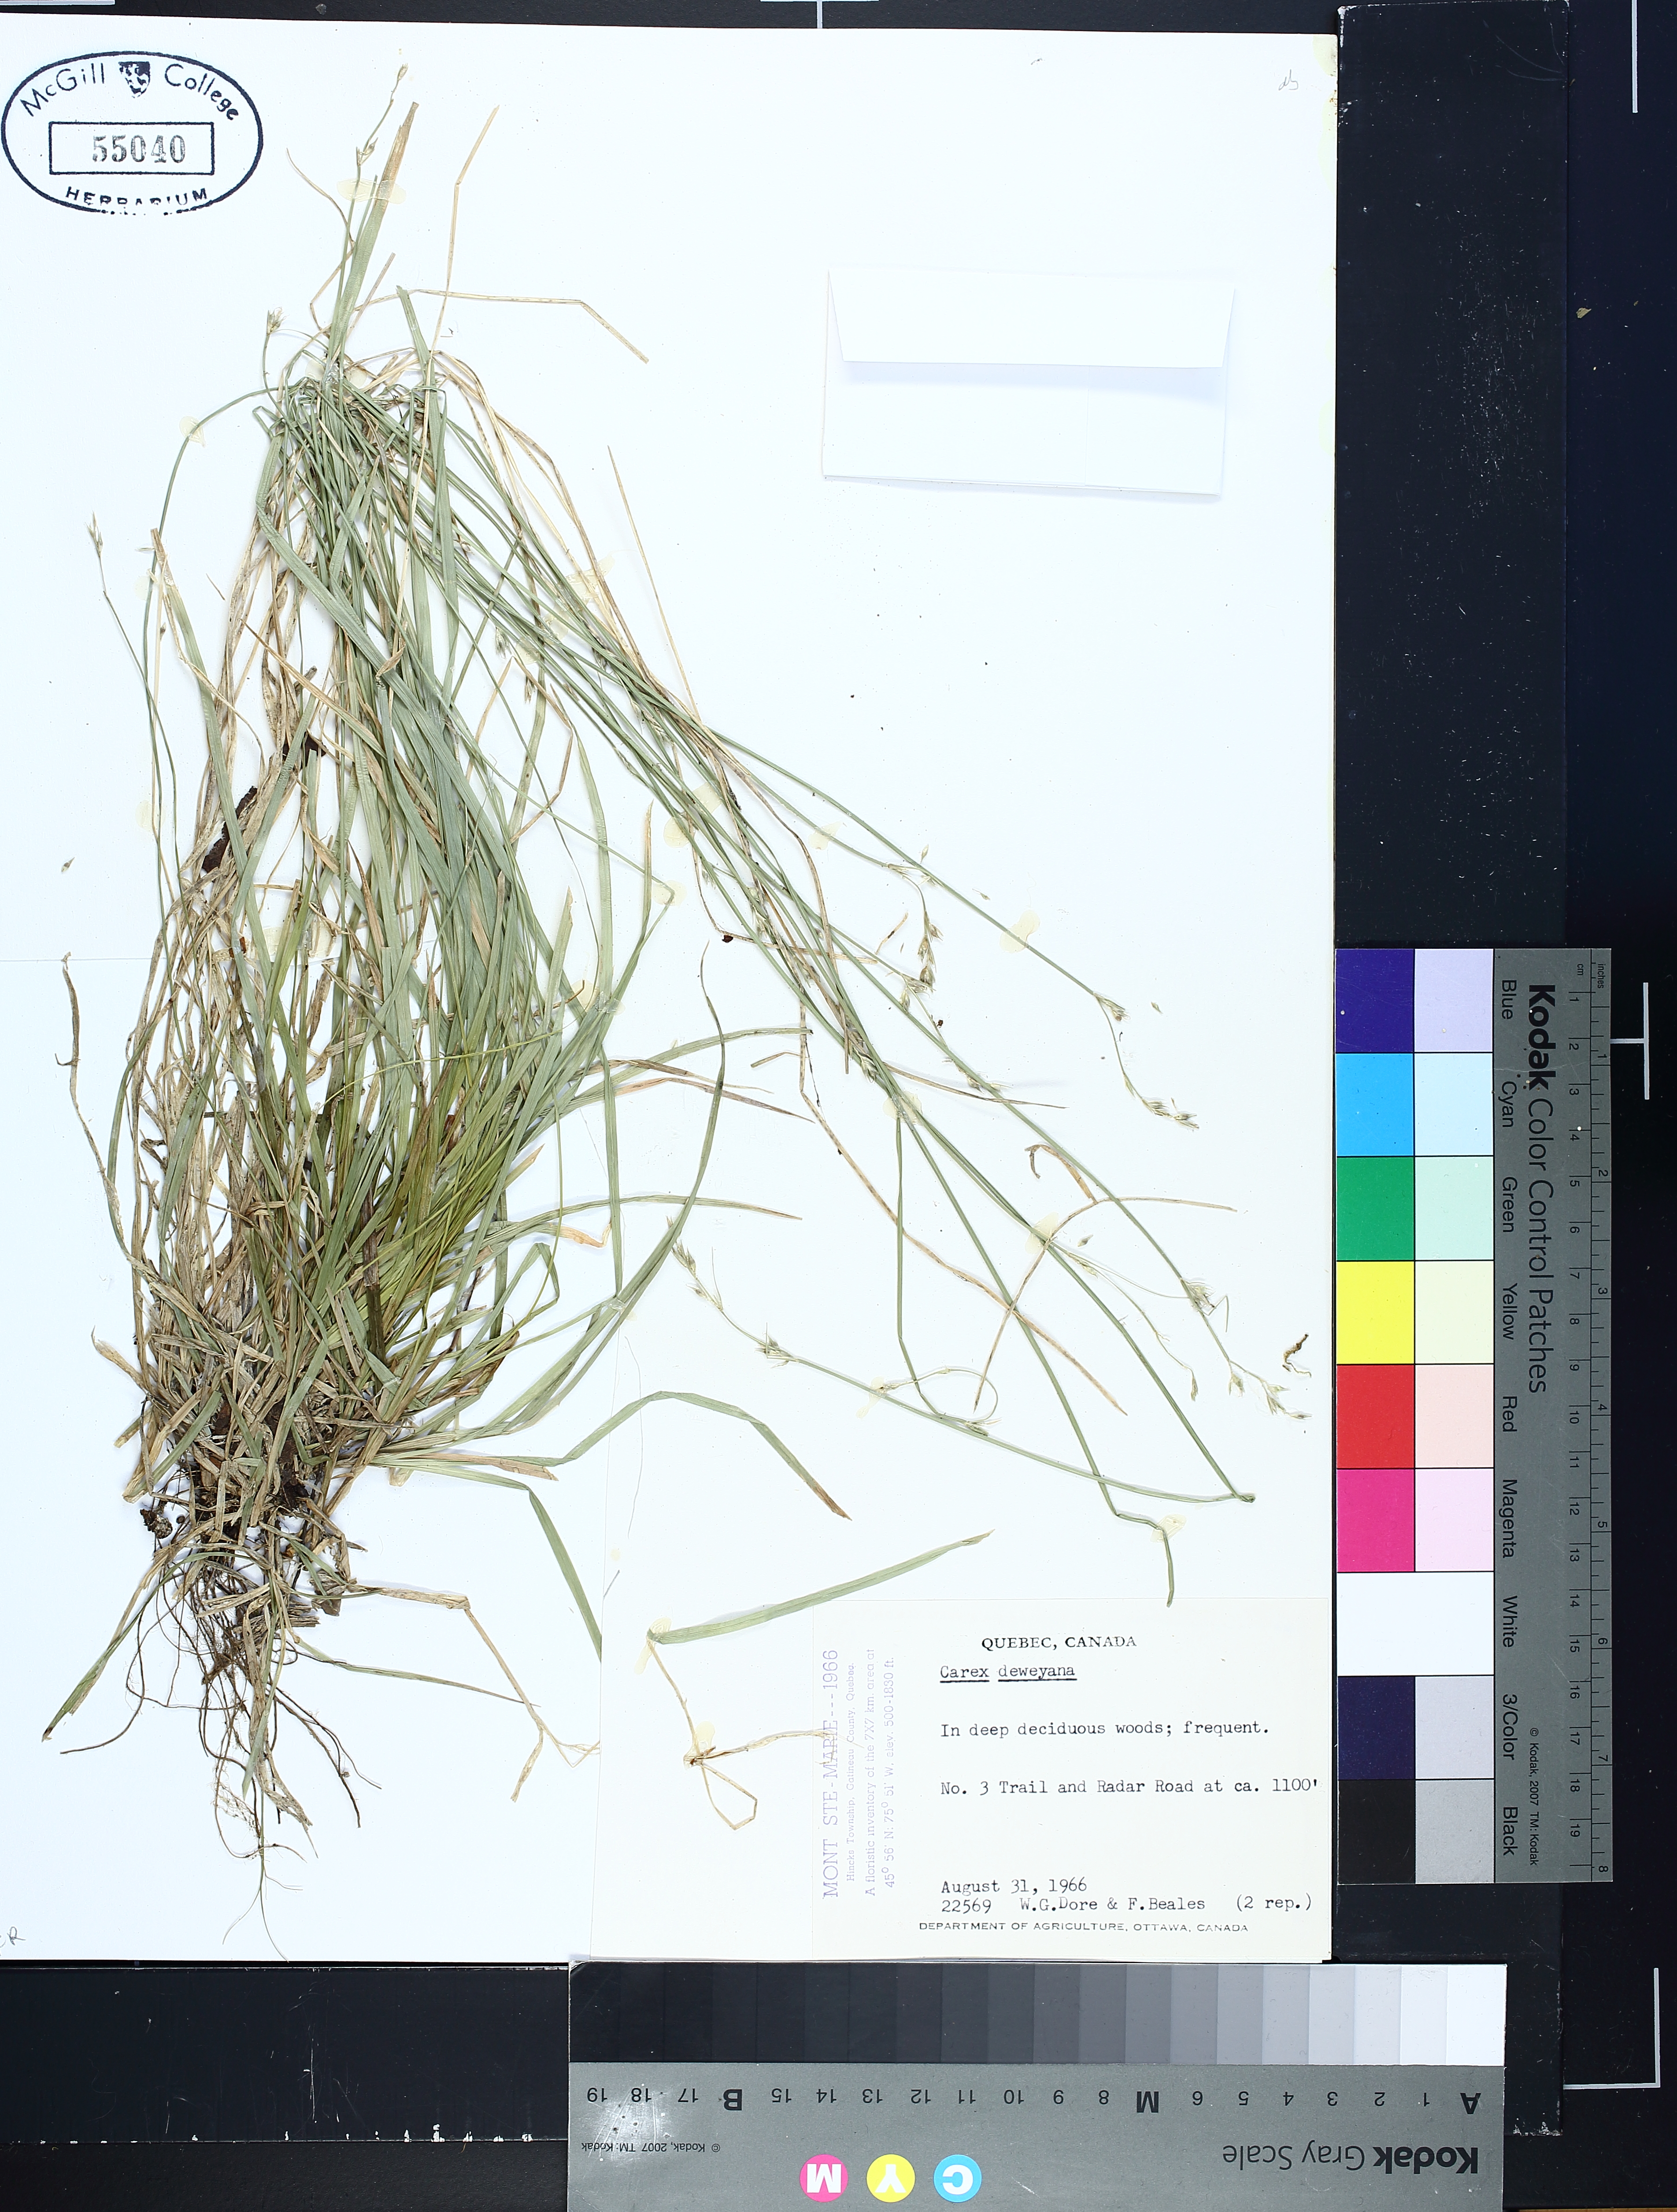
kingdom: Plantae
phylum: Tracheophyta
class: Liliopsida
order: Poales
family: Cyperaceae
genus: Carex
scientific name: Carex deweyana
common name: Dewey's sedge
